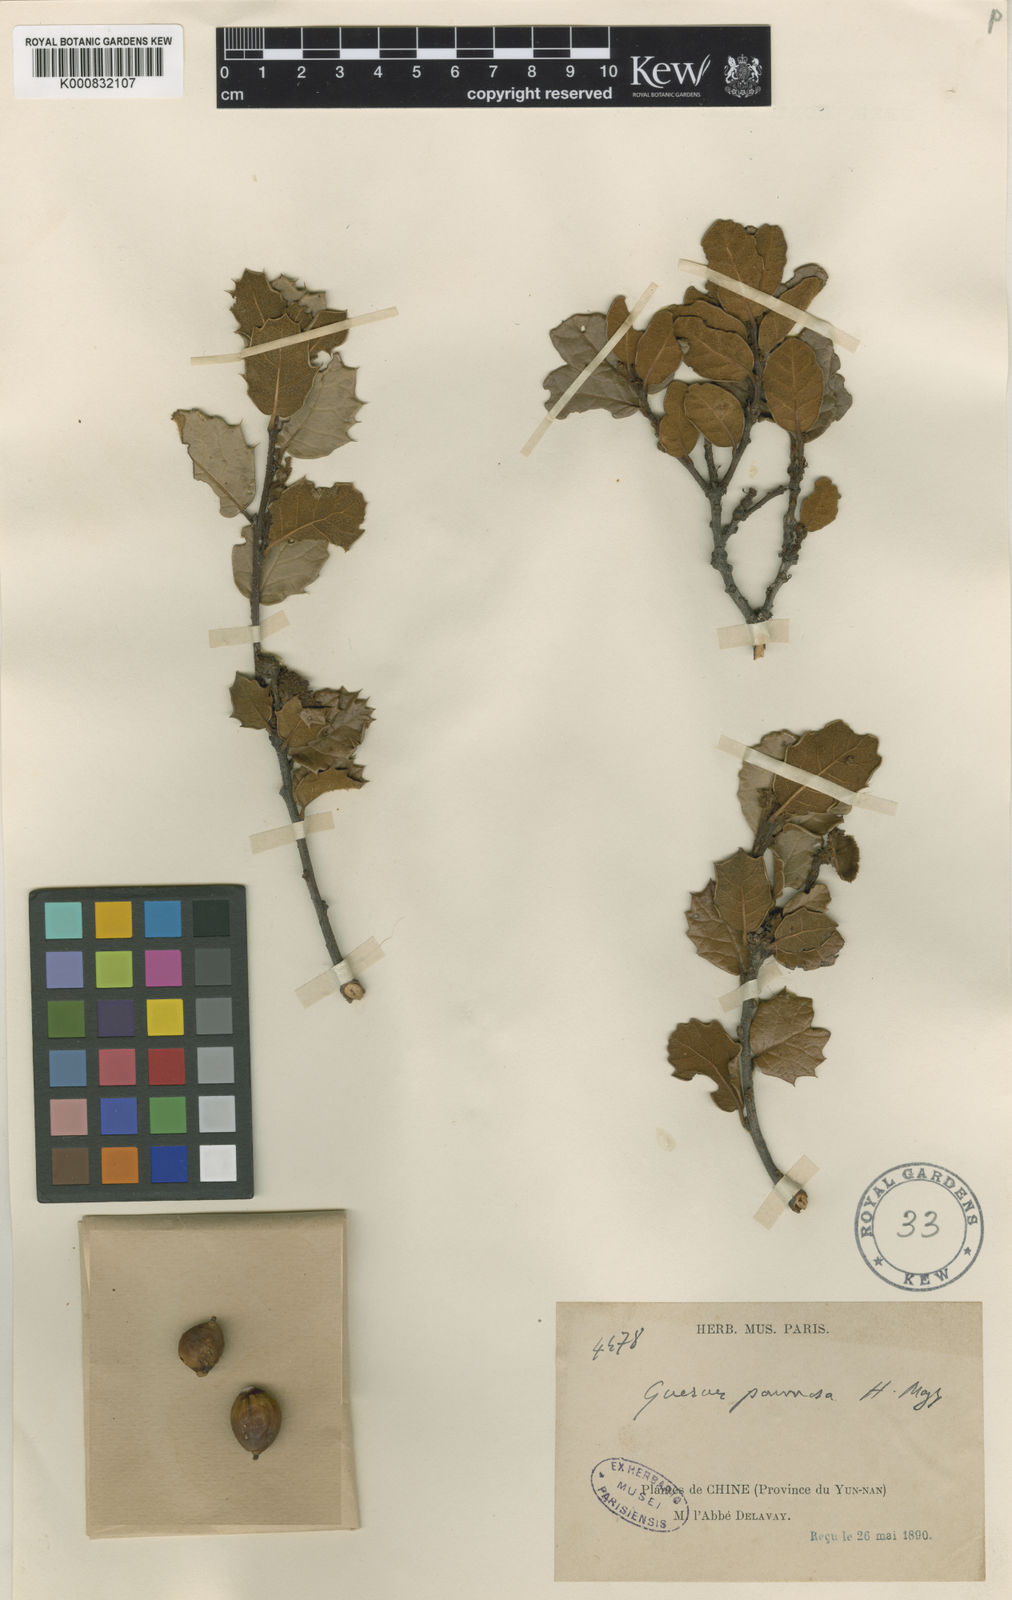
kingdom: Plantae
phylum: Tracheophyta
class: Magnoliopsida
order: Fagales
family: Fagaceae
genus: Quercus
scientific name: Quercus pannosa
